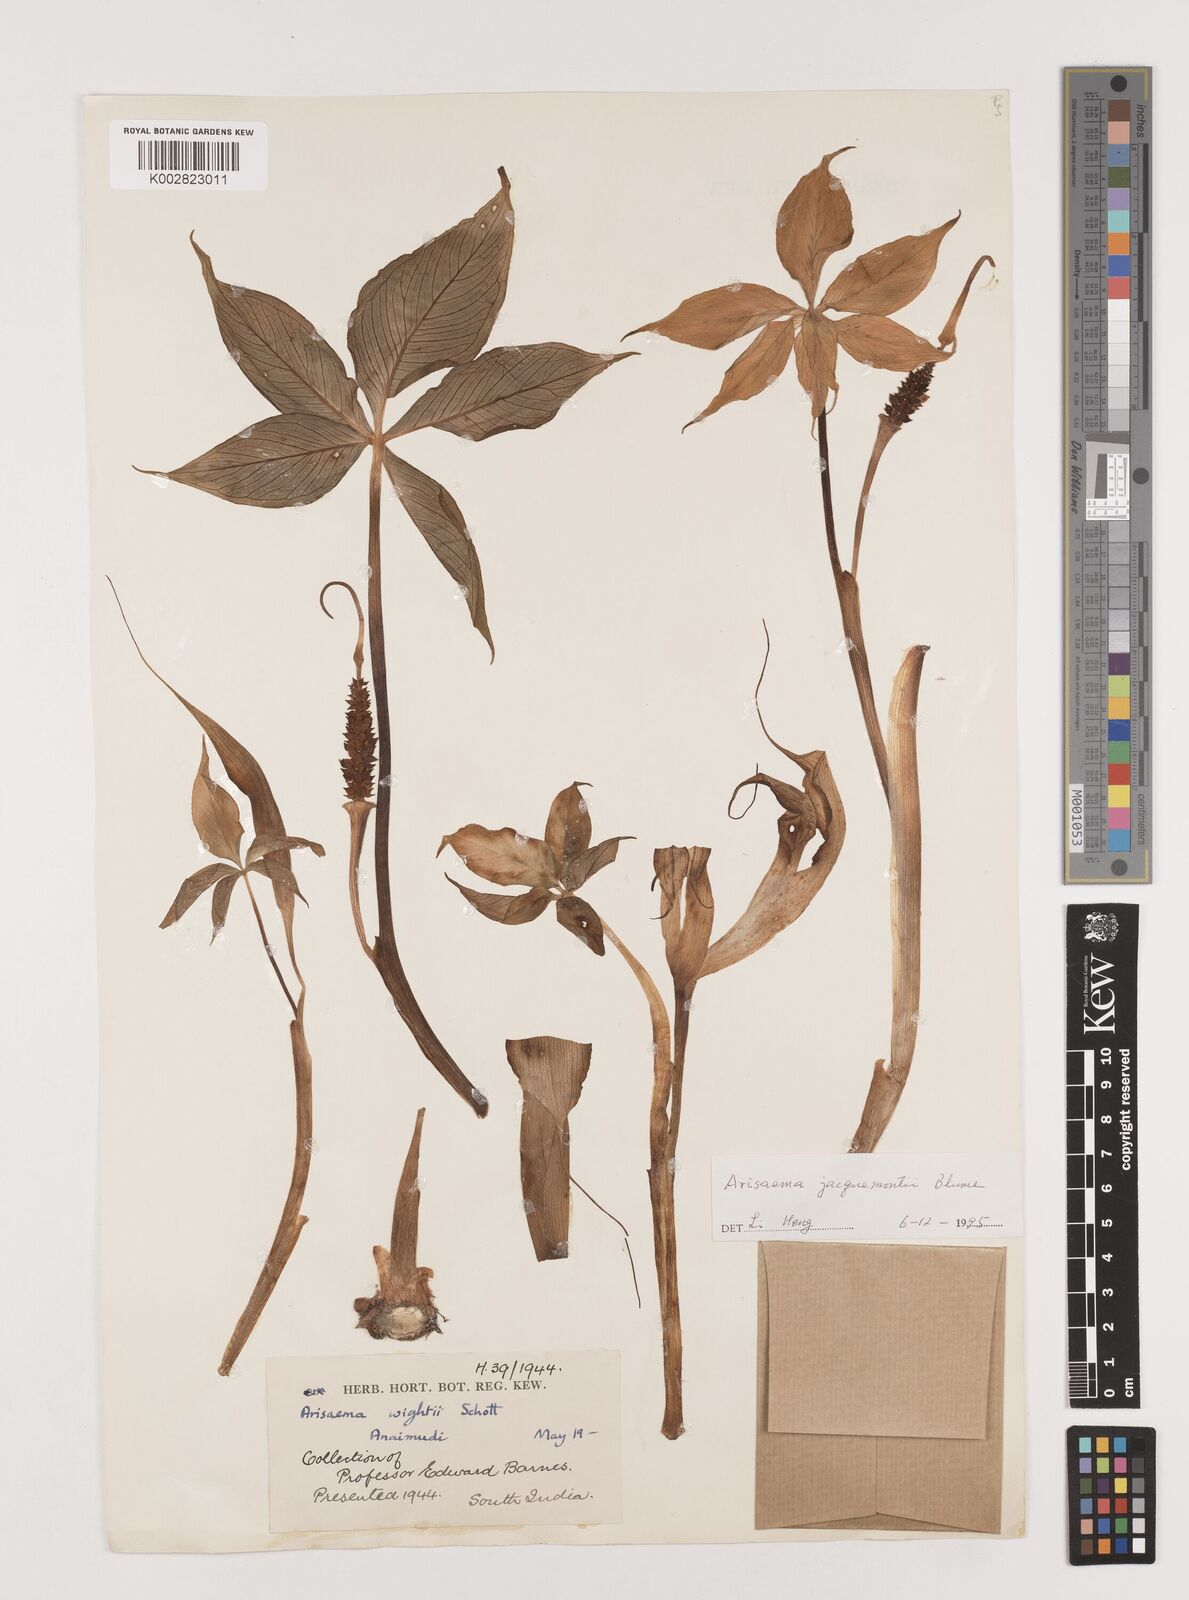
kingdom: Plantae
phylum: Tracheophyta
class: Liliopsida
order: Alismatales
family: Araceae
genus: Arisaema
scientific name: Arisaema jacquemontii
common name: Jacquemont's cobra-lily
